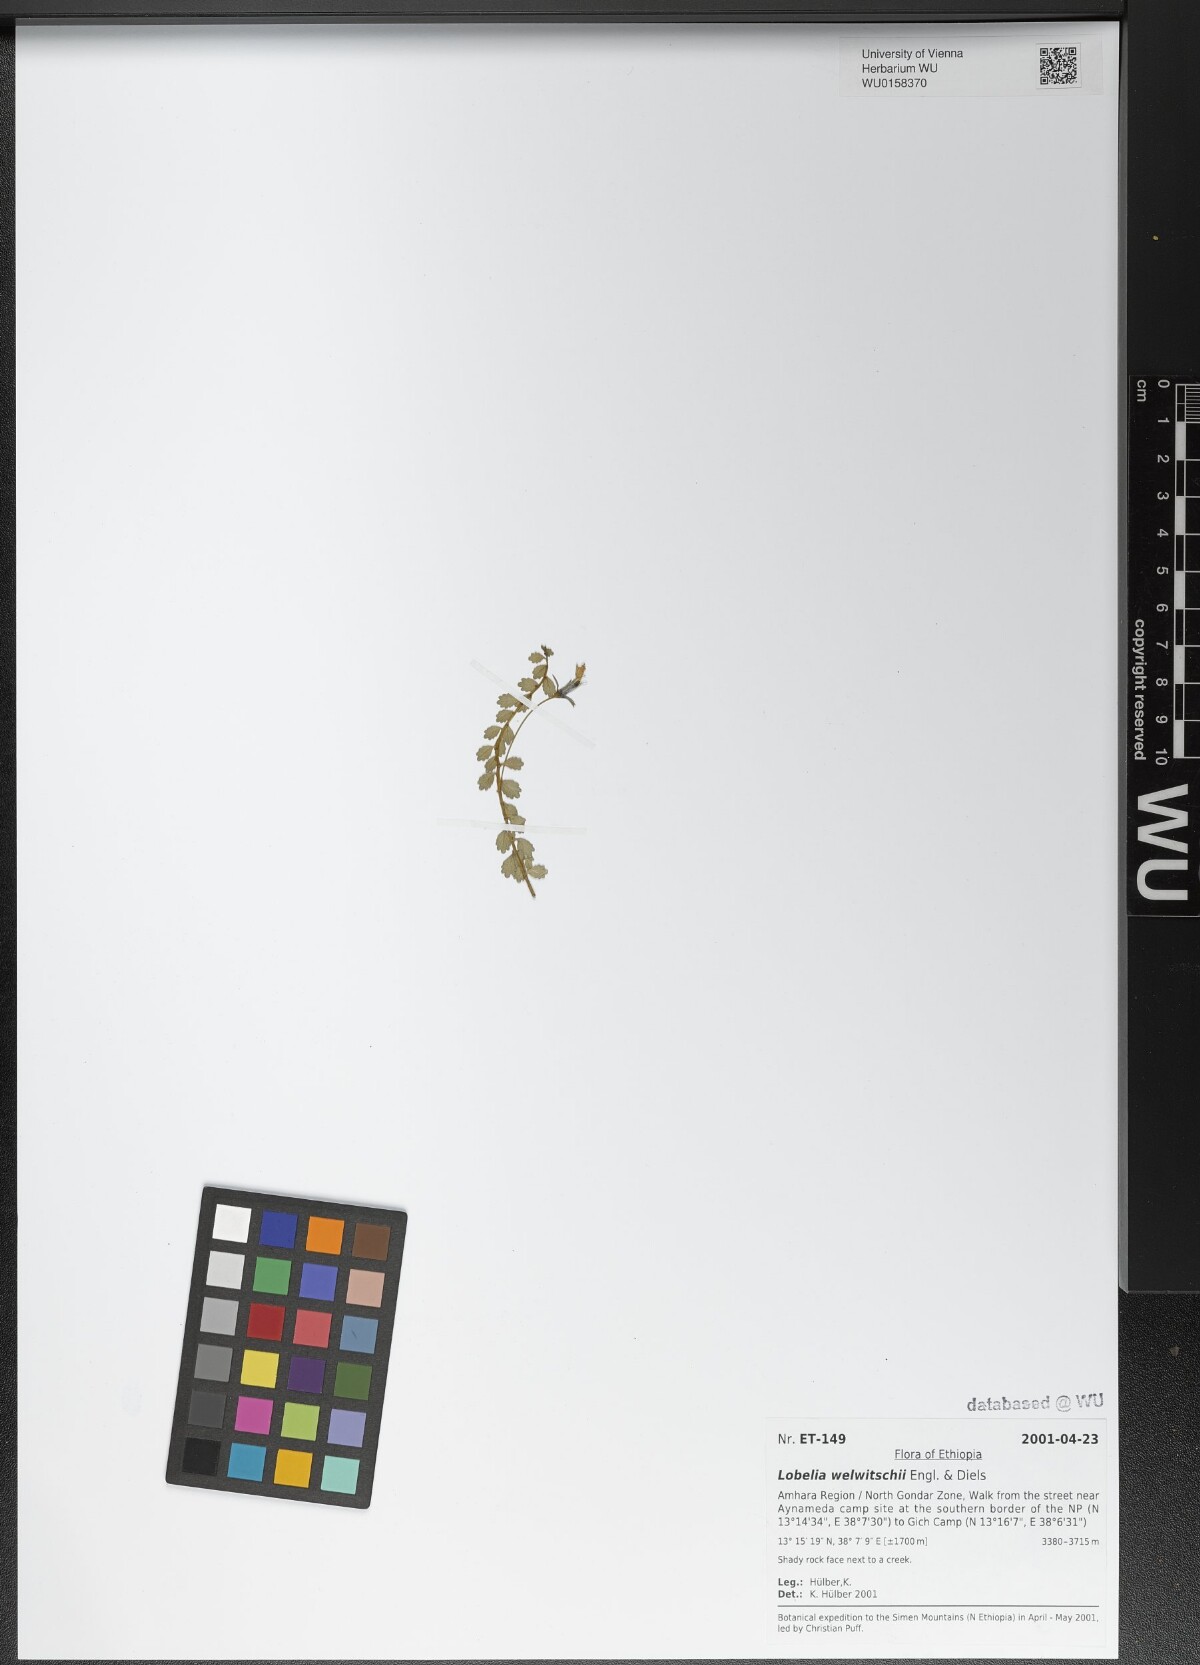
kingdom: Plantae
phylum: Tracheophyta
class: Magnoliopsida
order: Asterales
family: Campanulaceae
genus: Lobelia
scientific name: Lobelia welwitschii
